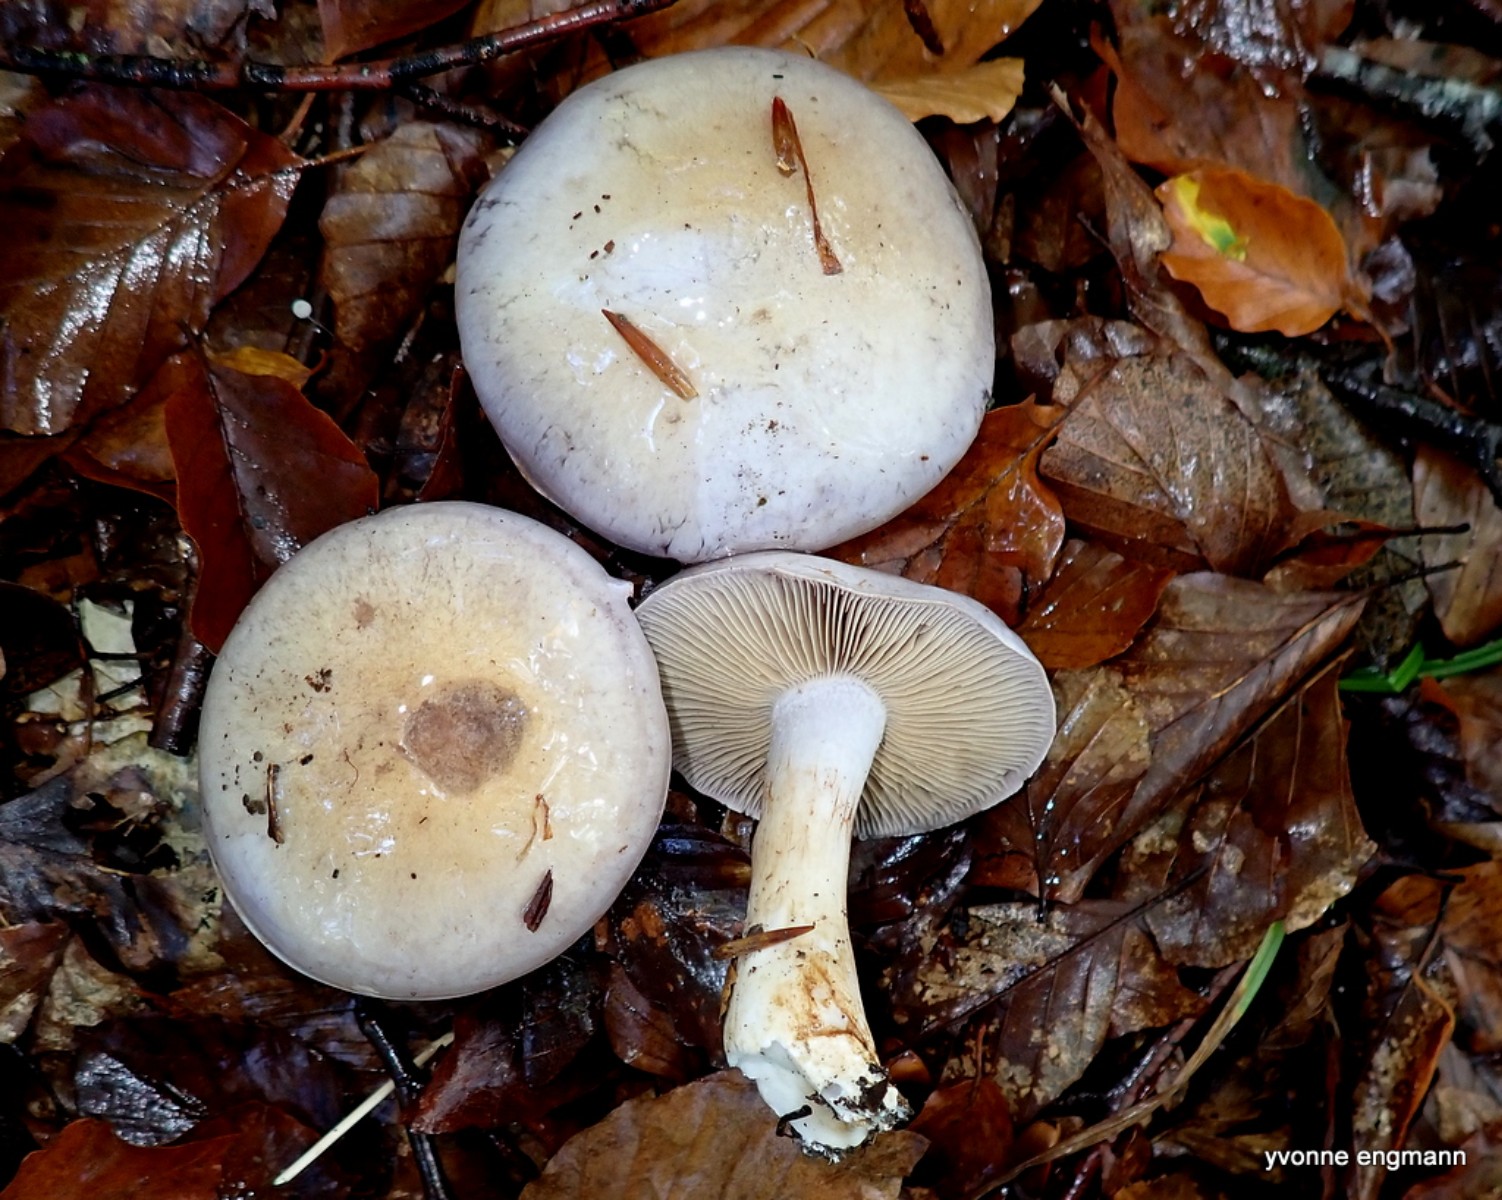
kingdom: Fungi
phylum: Basidiomycota
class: Agaricomycetes
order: Agaricales
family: Cortinariaceae
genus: Cortinarius
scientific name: Cortinarius largus
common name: violetrandet slørhat
